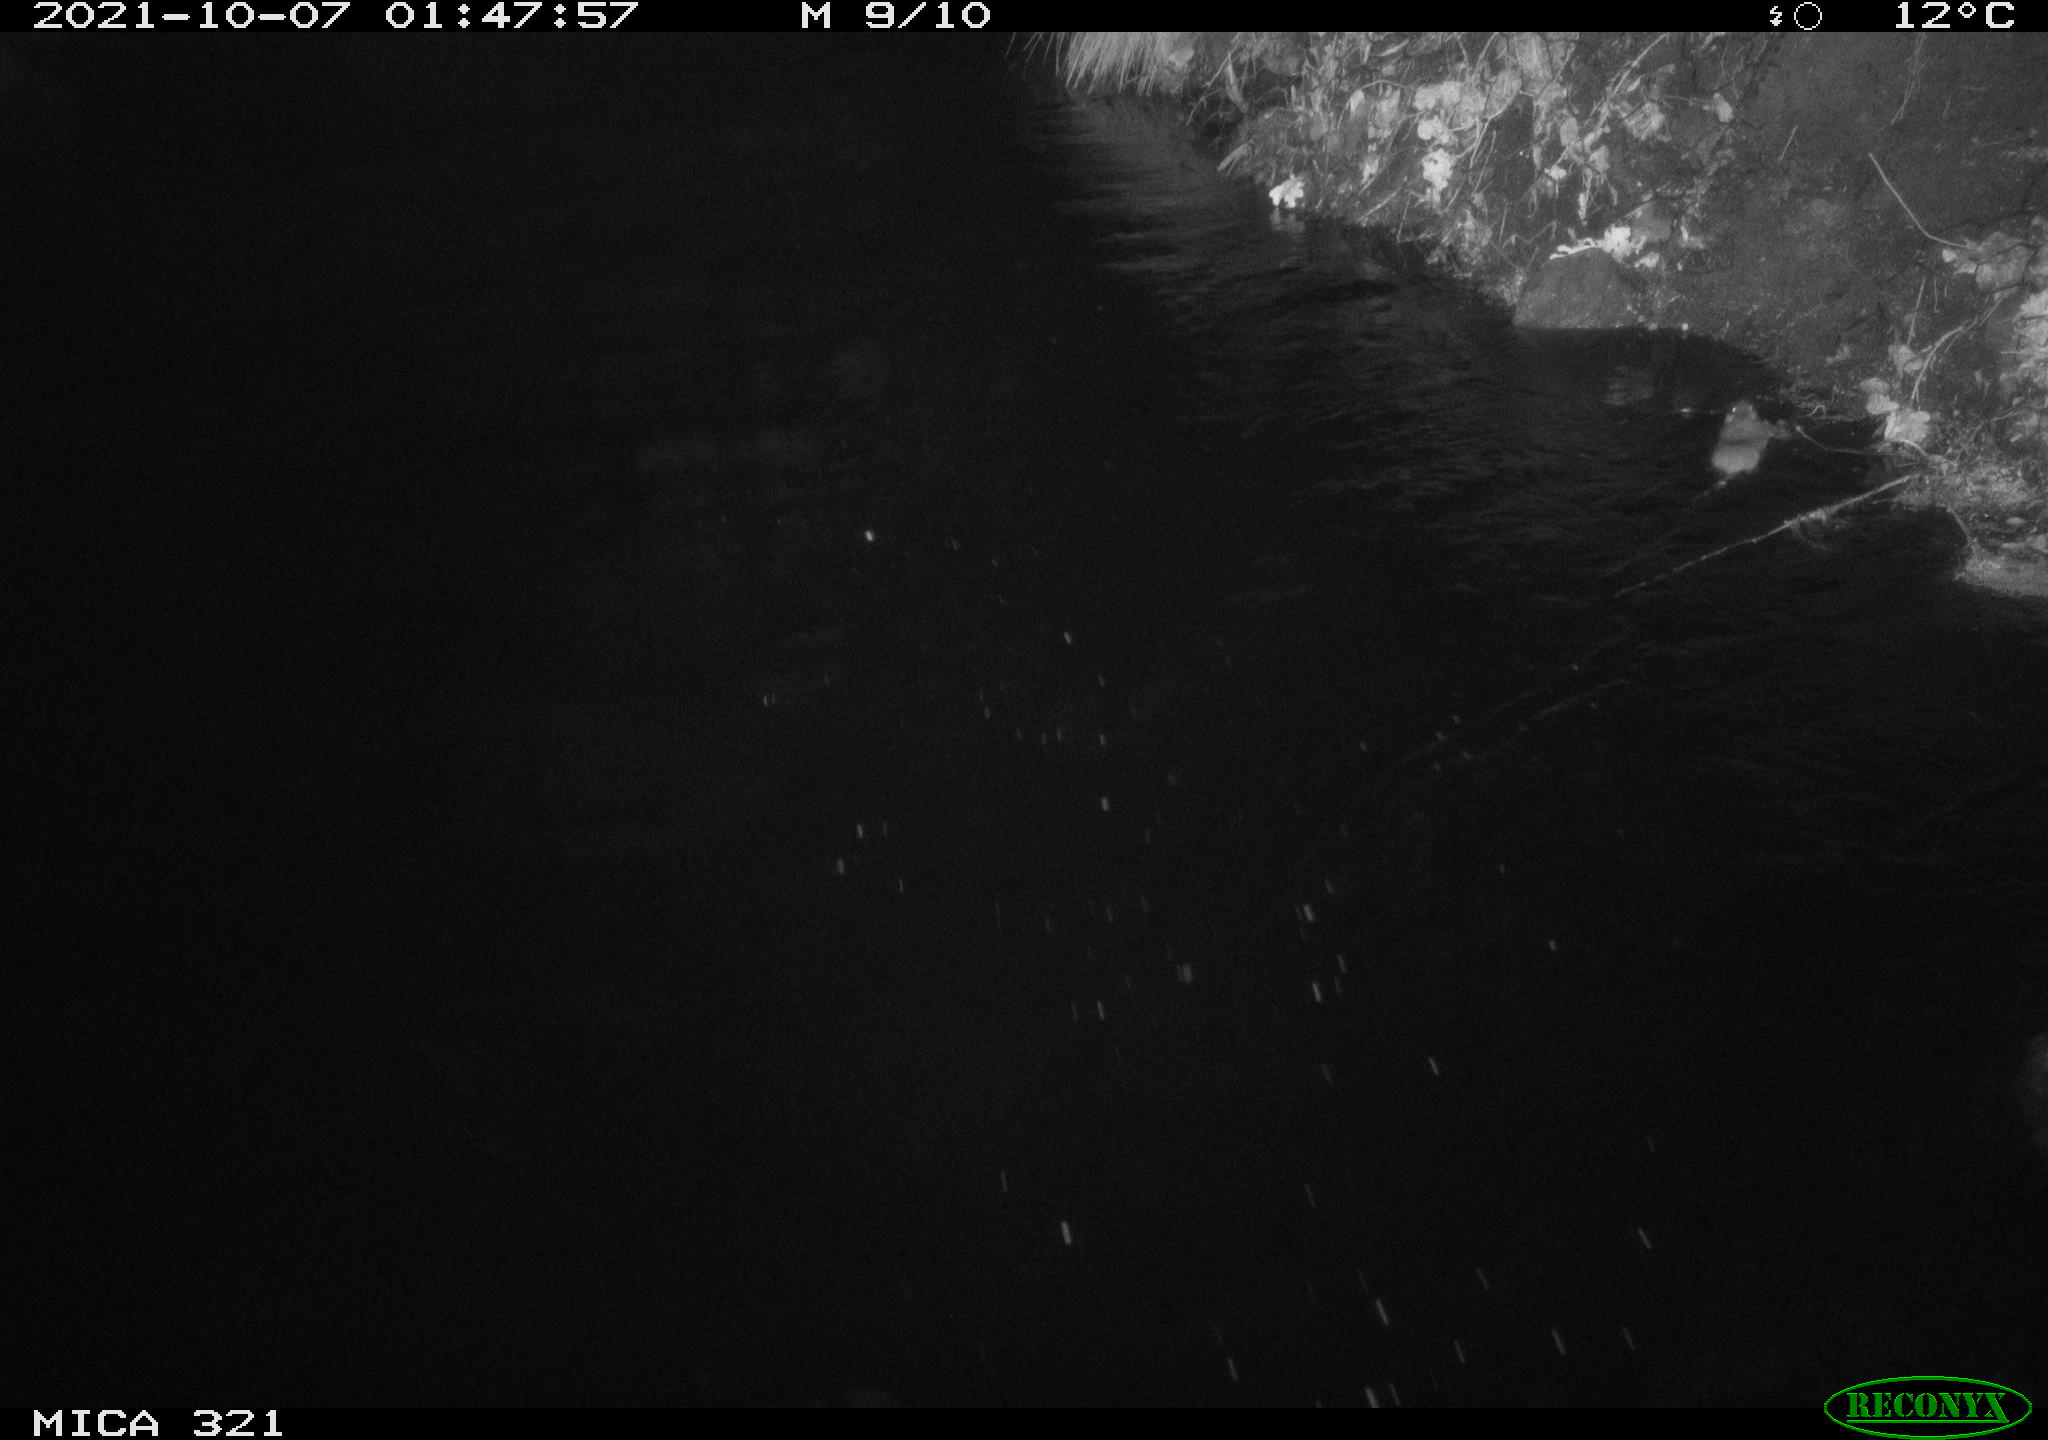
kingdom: Animalia
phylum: Chordata
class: Mammalia
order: Rodentia
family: Muridae
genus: Rattus
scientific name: Rattus norvegicus
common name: Brown rat
